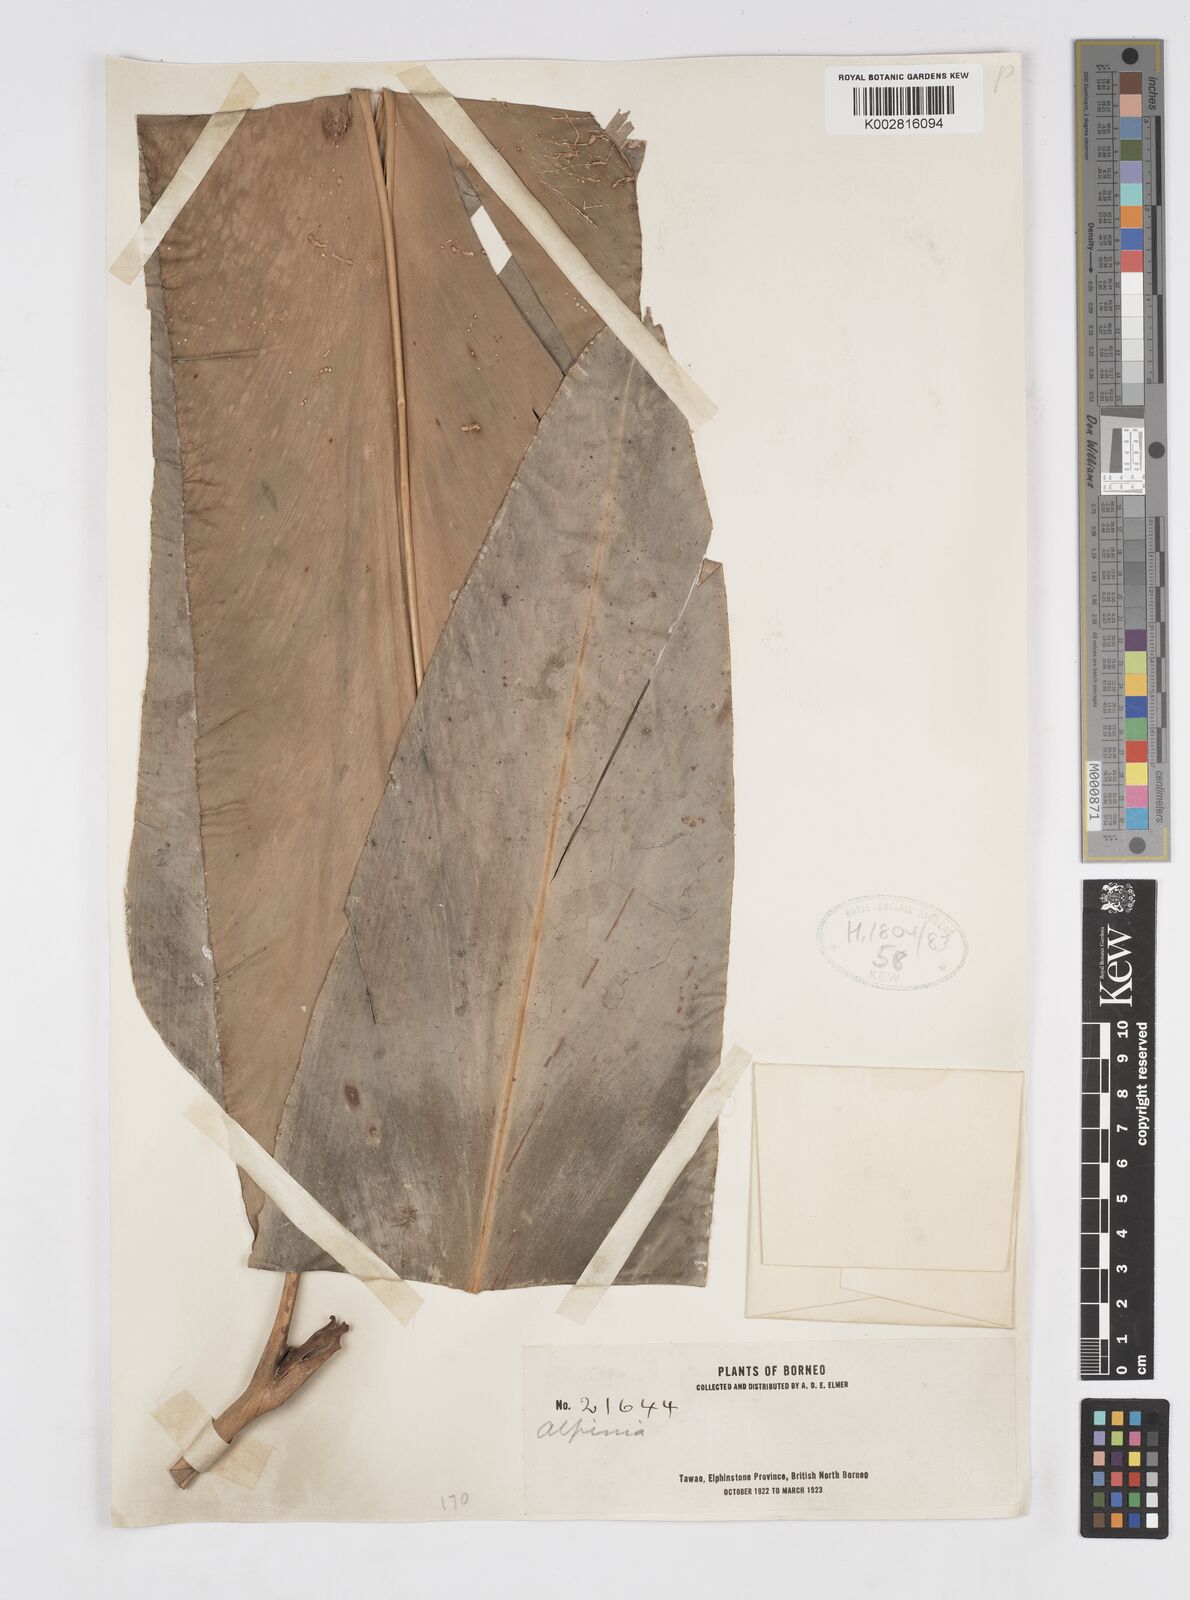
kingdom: Plantae
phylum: Tracheophyta
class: Liliopsida
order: Zingiberales
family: Zingiberaceae
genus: Alpinia
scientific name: Alpinia
